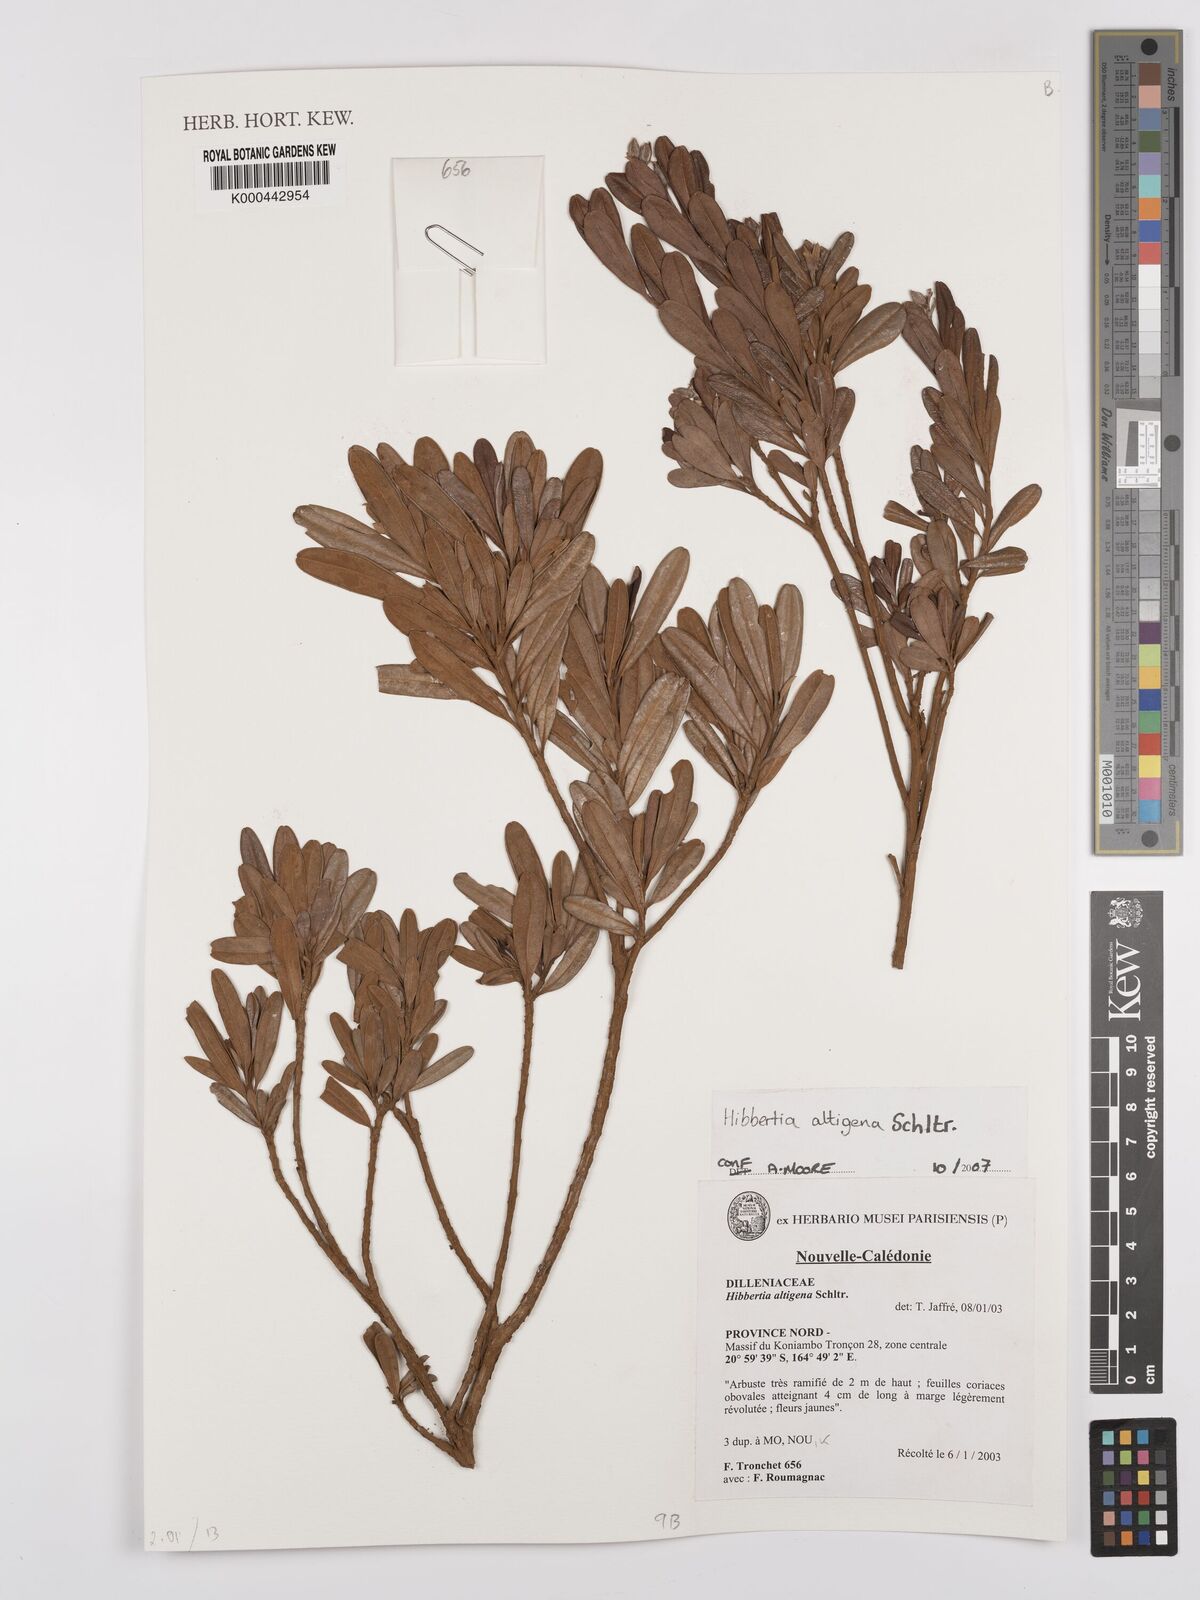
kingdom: Plantae
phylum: Tracheophyta
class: Magnoliopsida
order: Dilleniales
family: Dilleniaceae
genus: Hibbertia
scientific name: Hibbertia altigena
